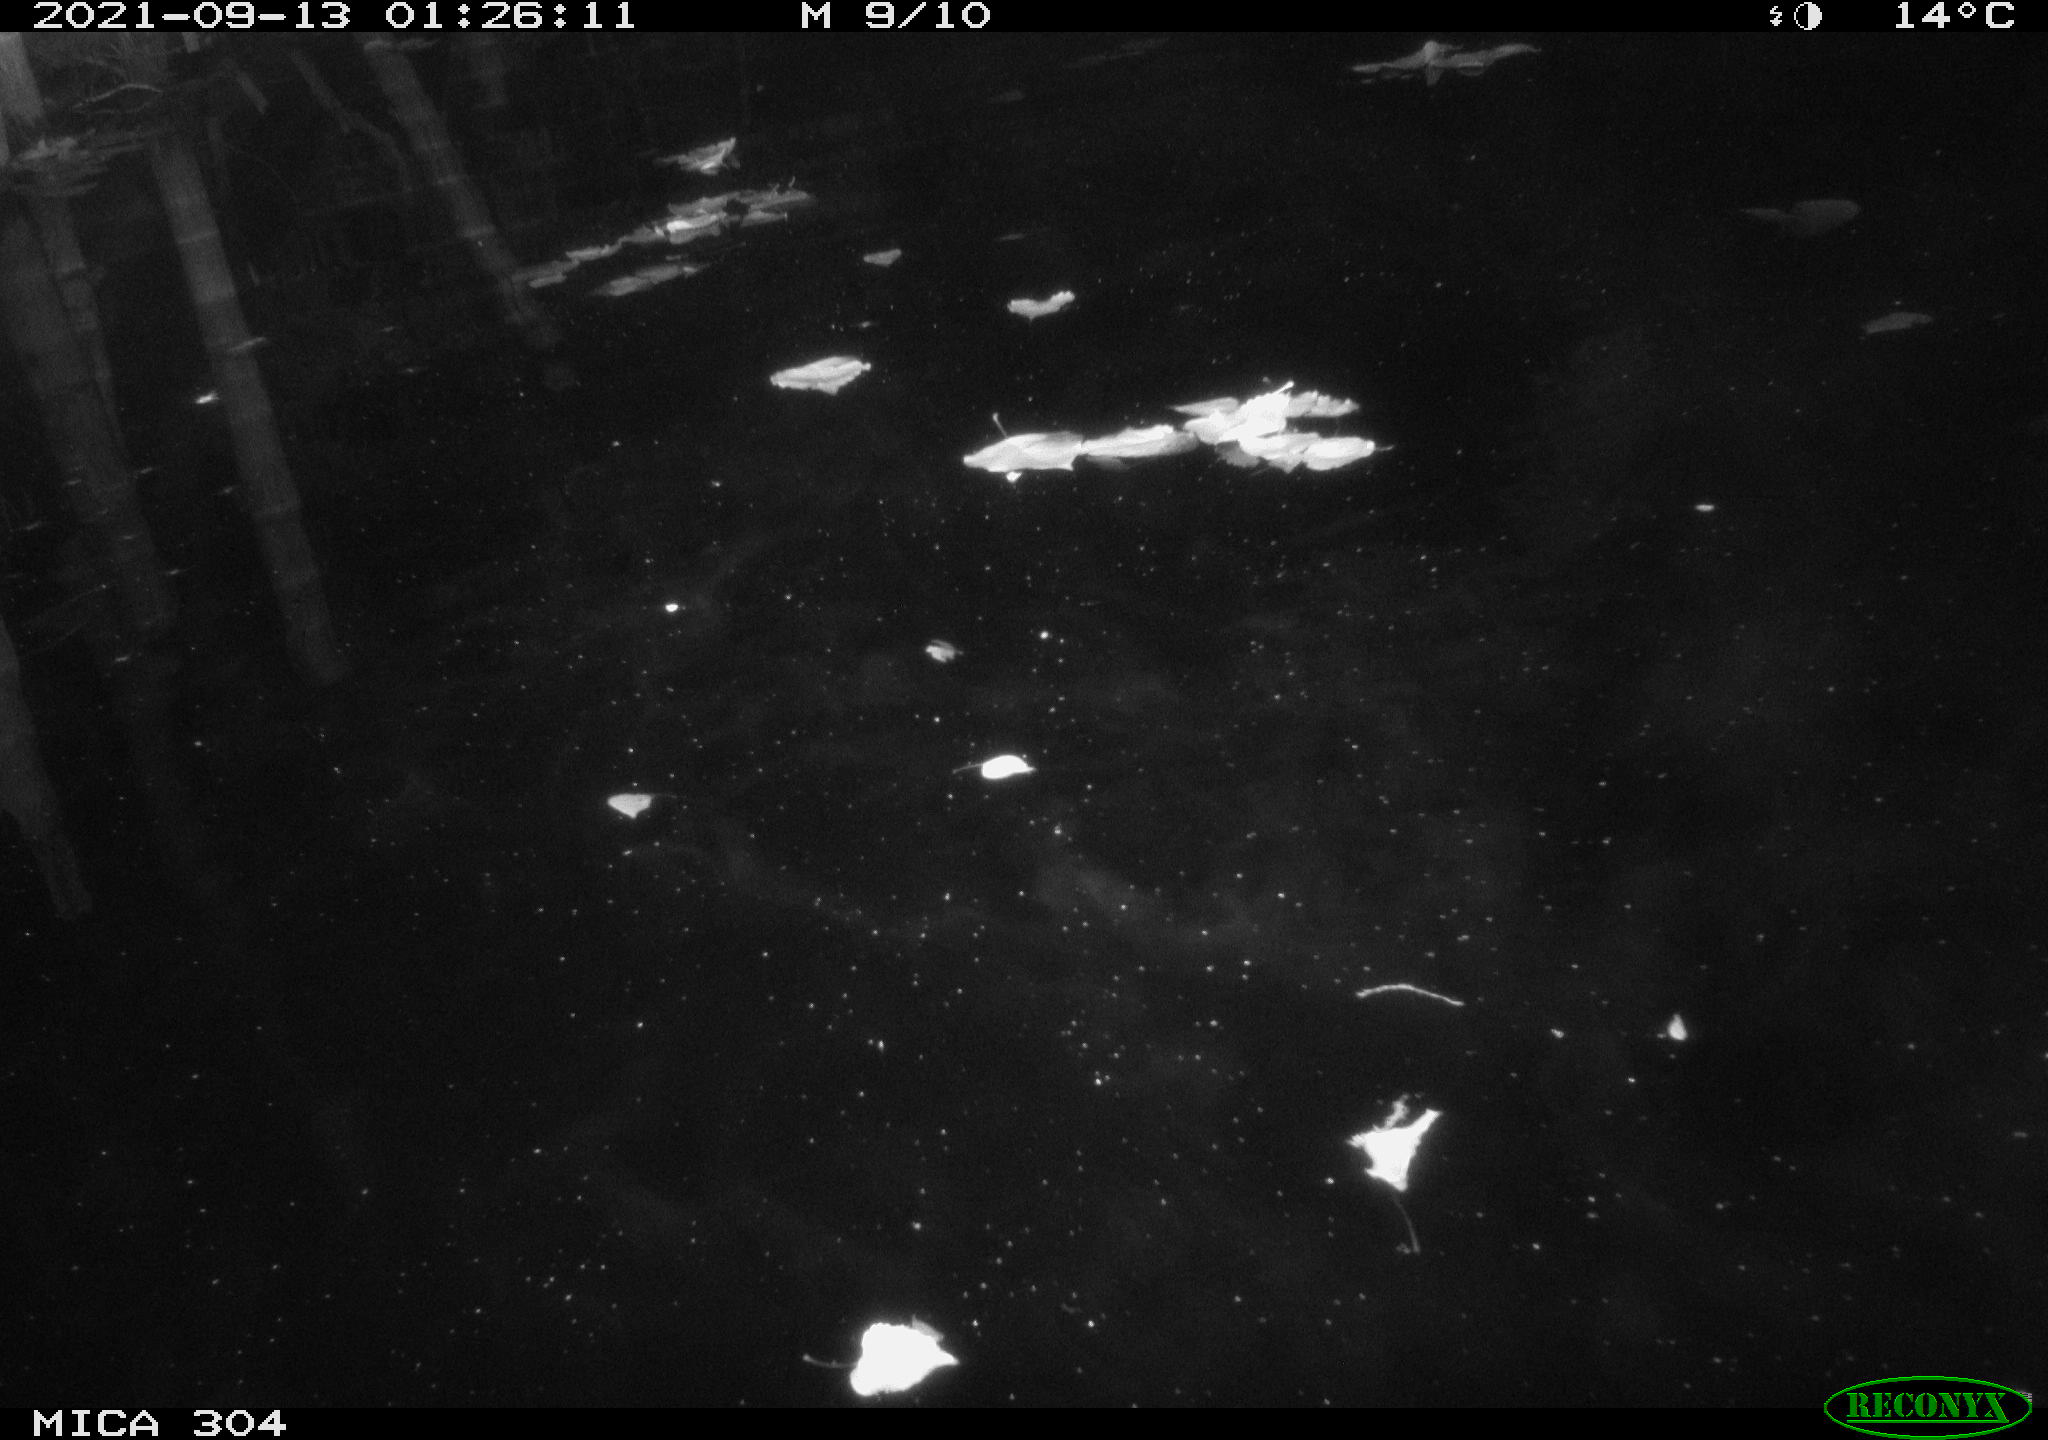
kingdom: Animalia
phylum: Chordata
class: Aves
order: Anseriformes
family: Anatidae
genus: Anas
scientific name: Anas platyrhynchos
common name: Mallard
